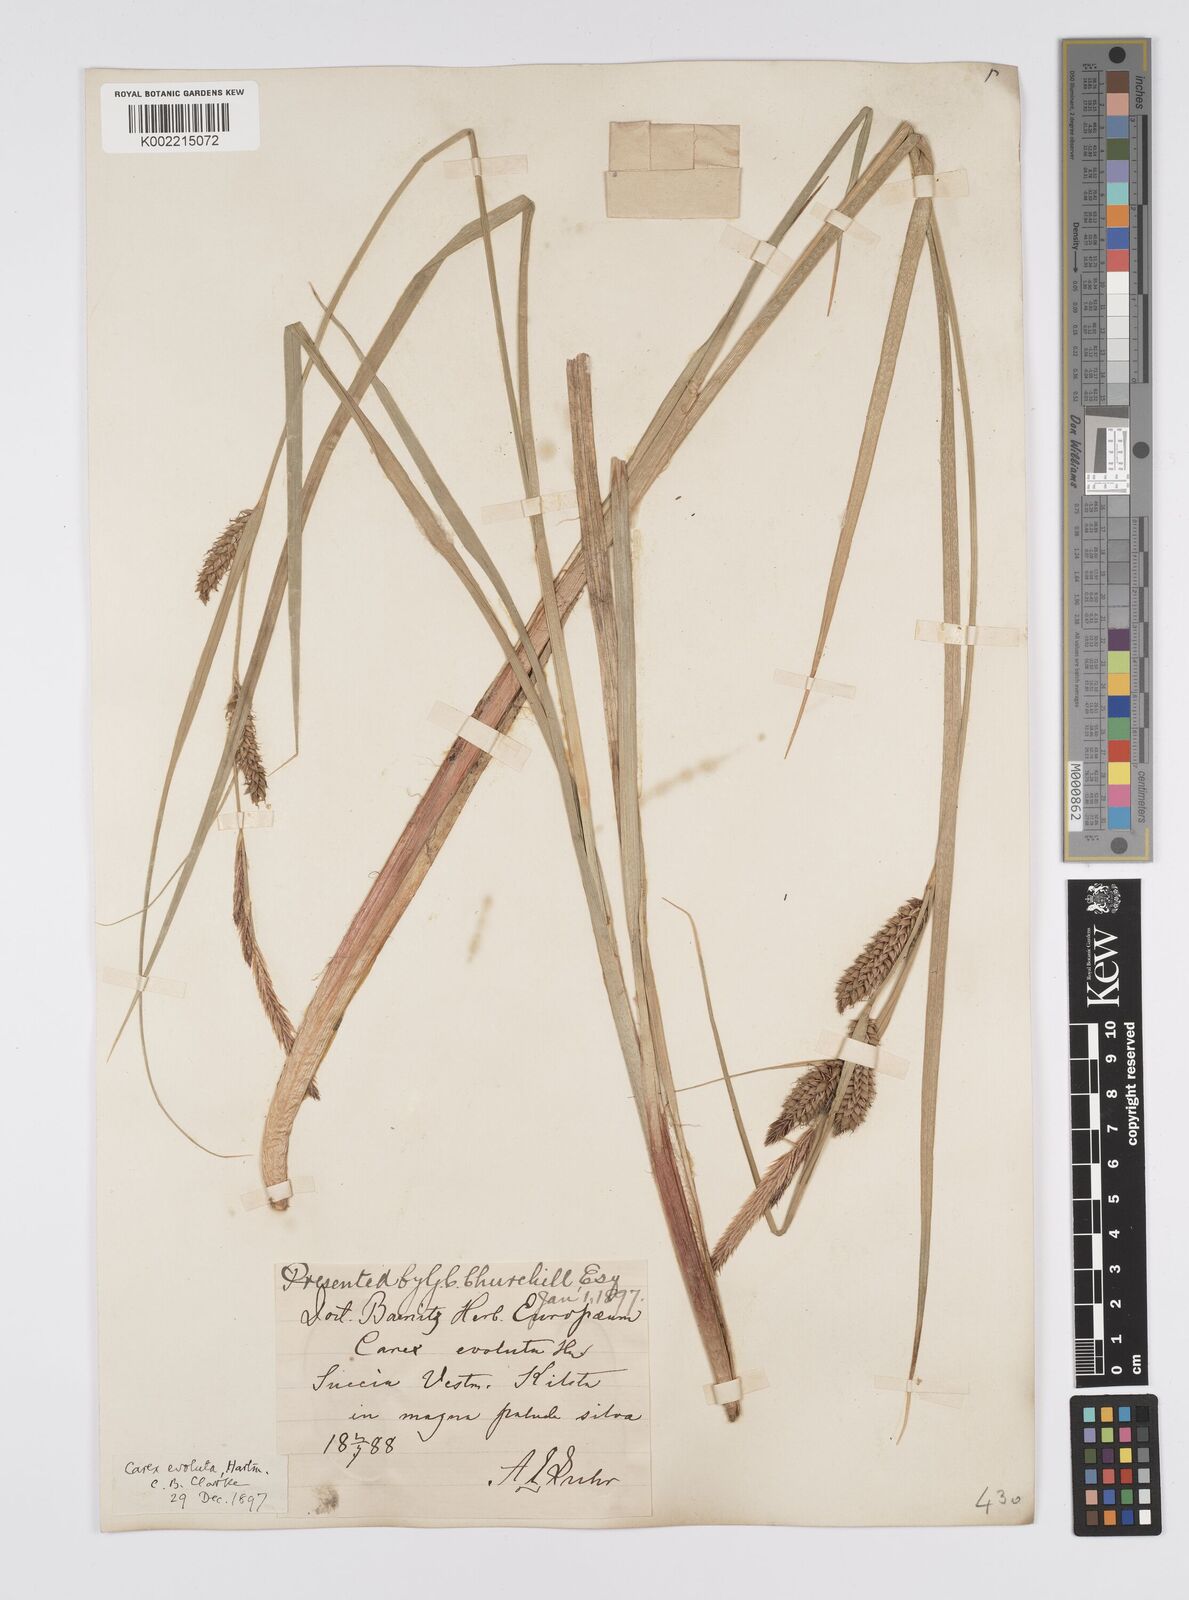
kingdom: Plantae
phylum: Tracheophyta
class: Liliopsida
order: Poales
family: Cyperaceae
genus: Carex
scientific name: Carex evoluta
